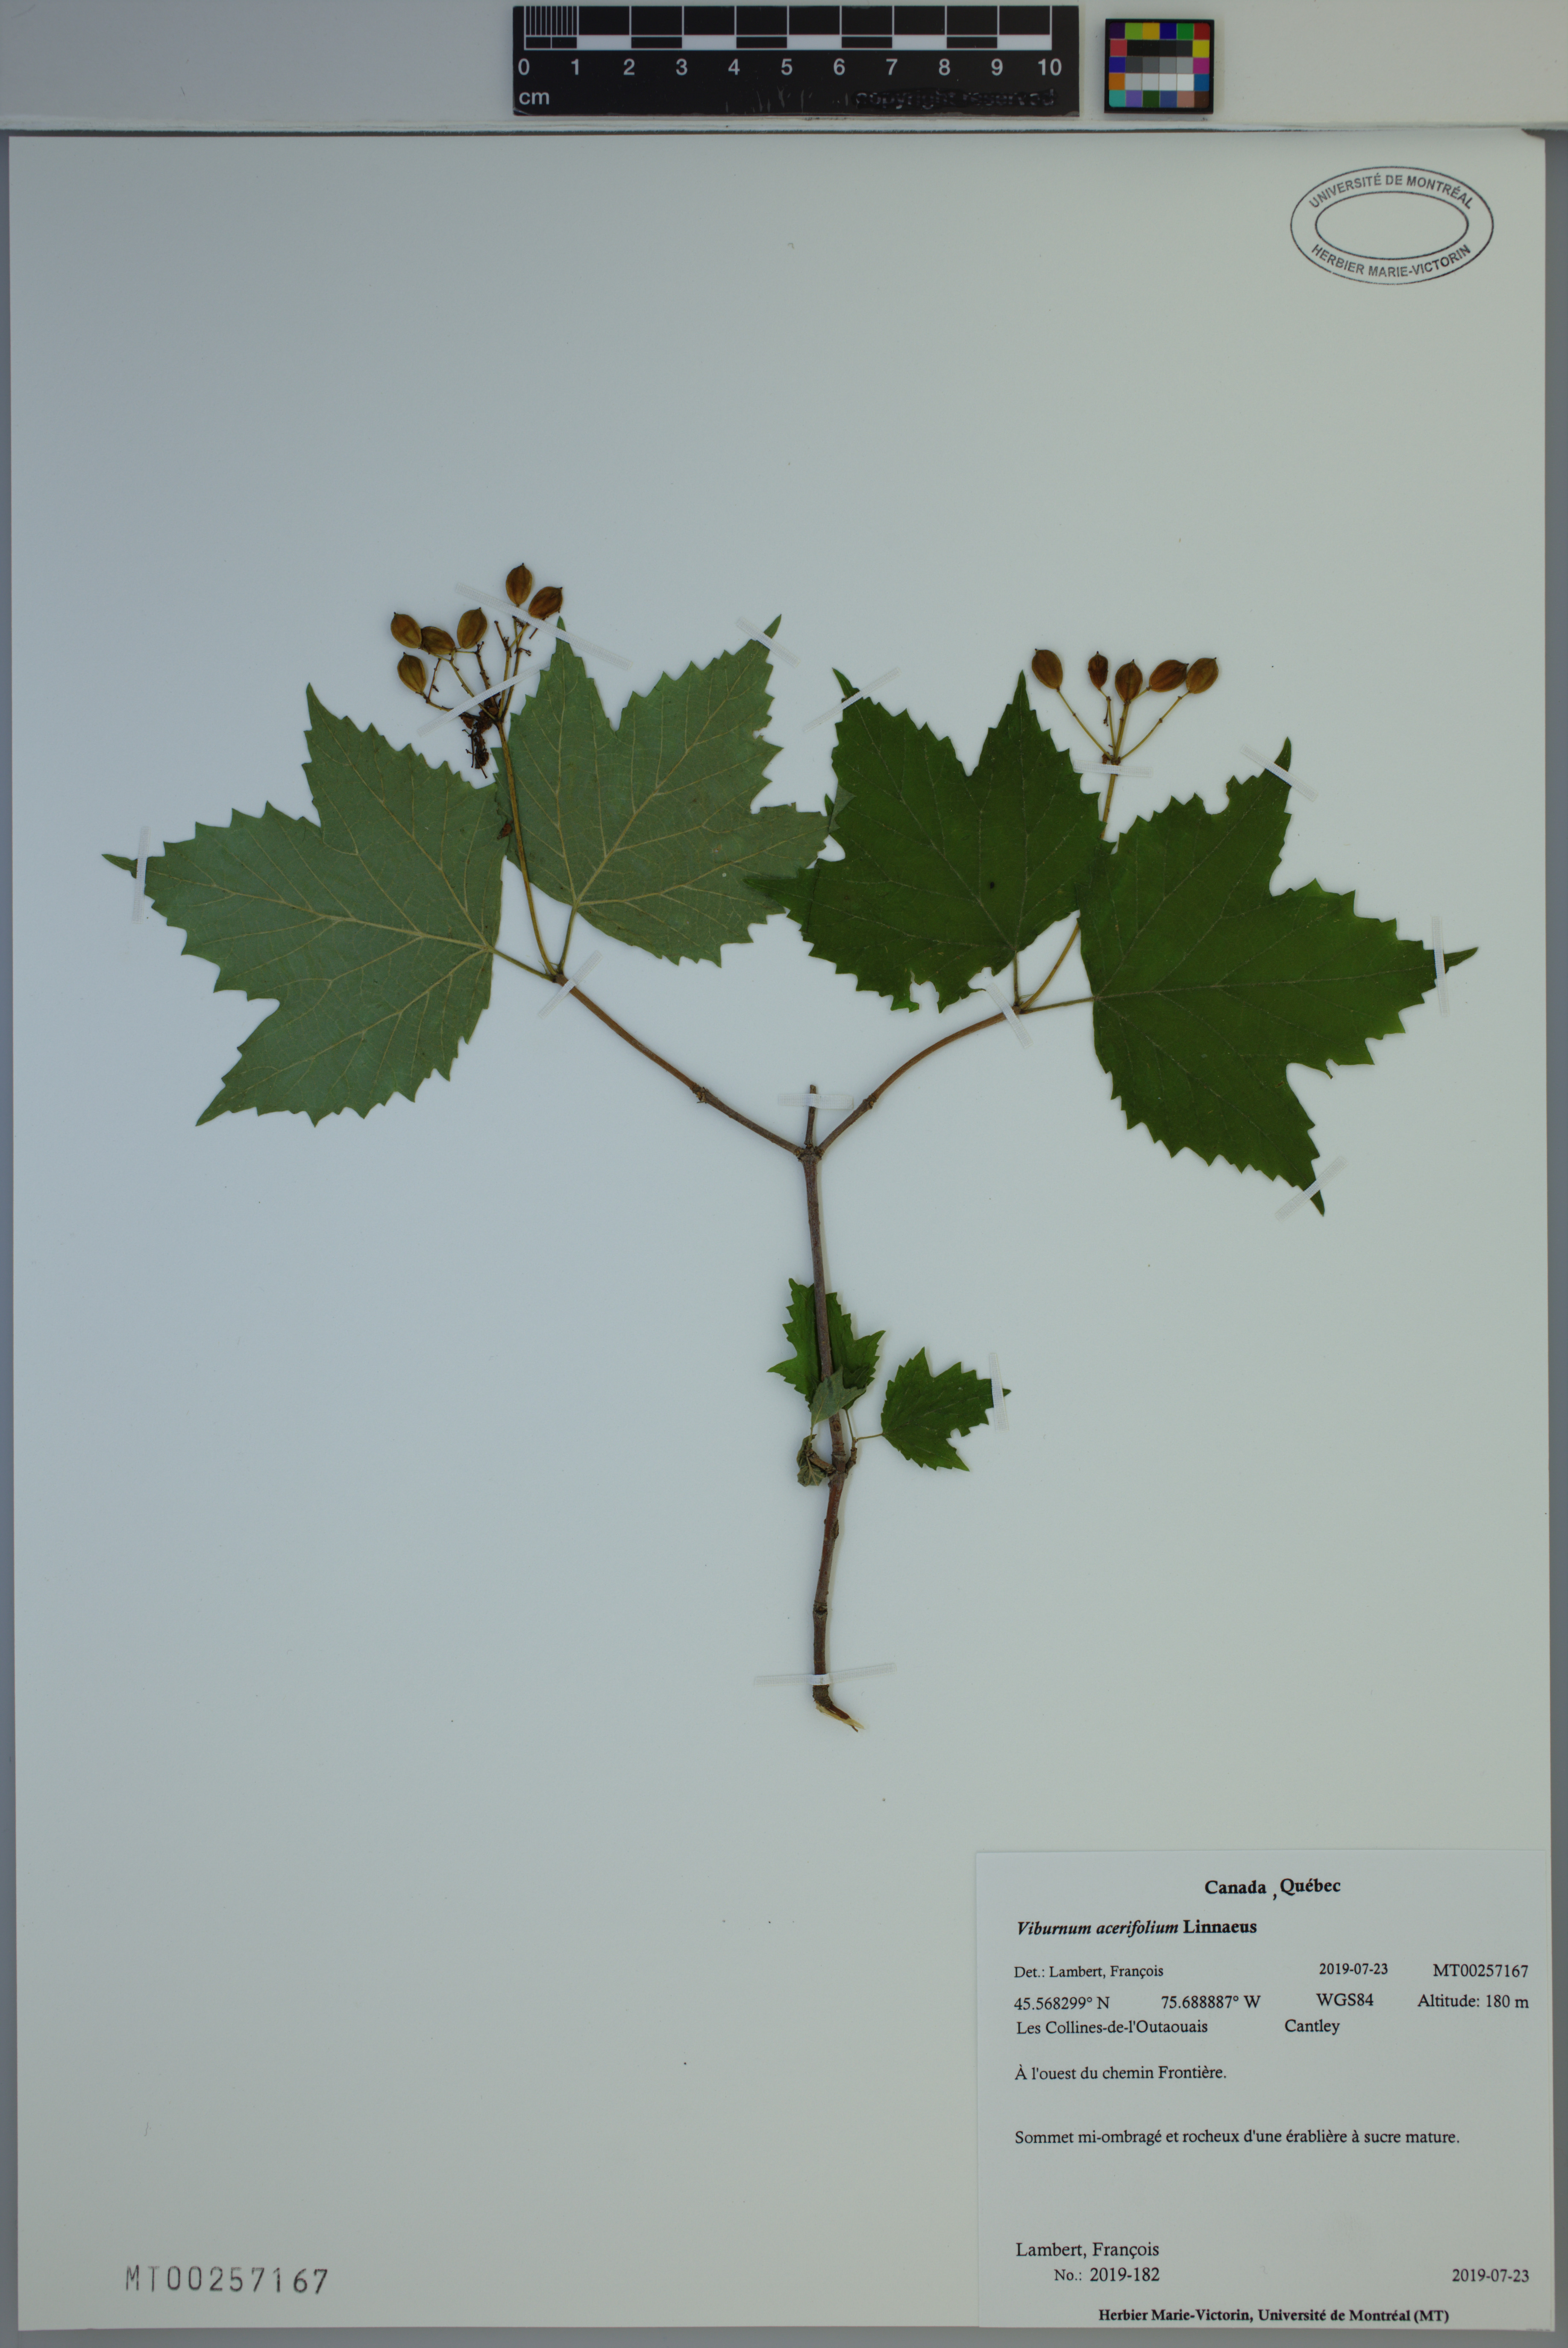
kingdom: Plantae
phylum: Tracheophyta
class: Magnoliopsida
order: Dipsacales
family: Viburnaceae
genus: Viburnum
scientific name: Viburnum acerifolium
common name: Dockmackie
